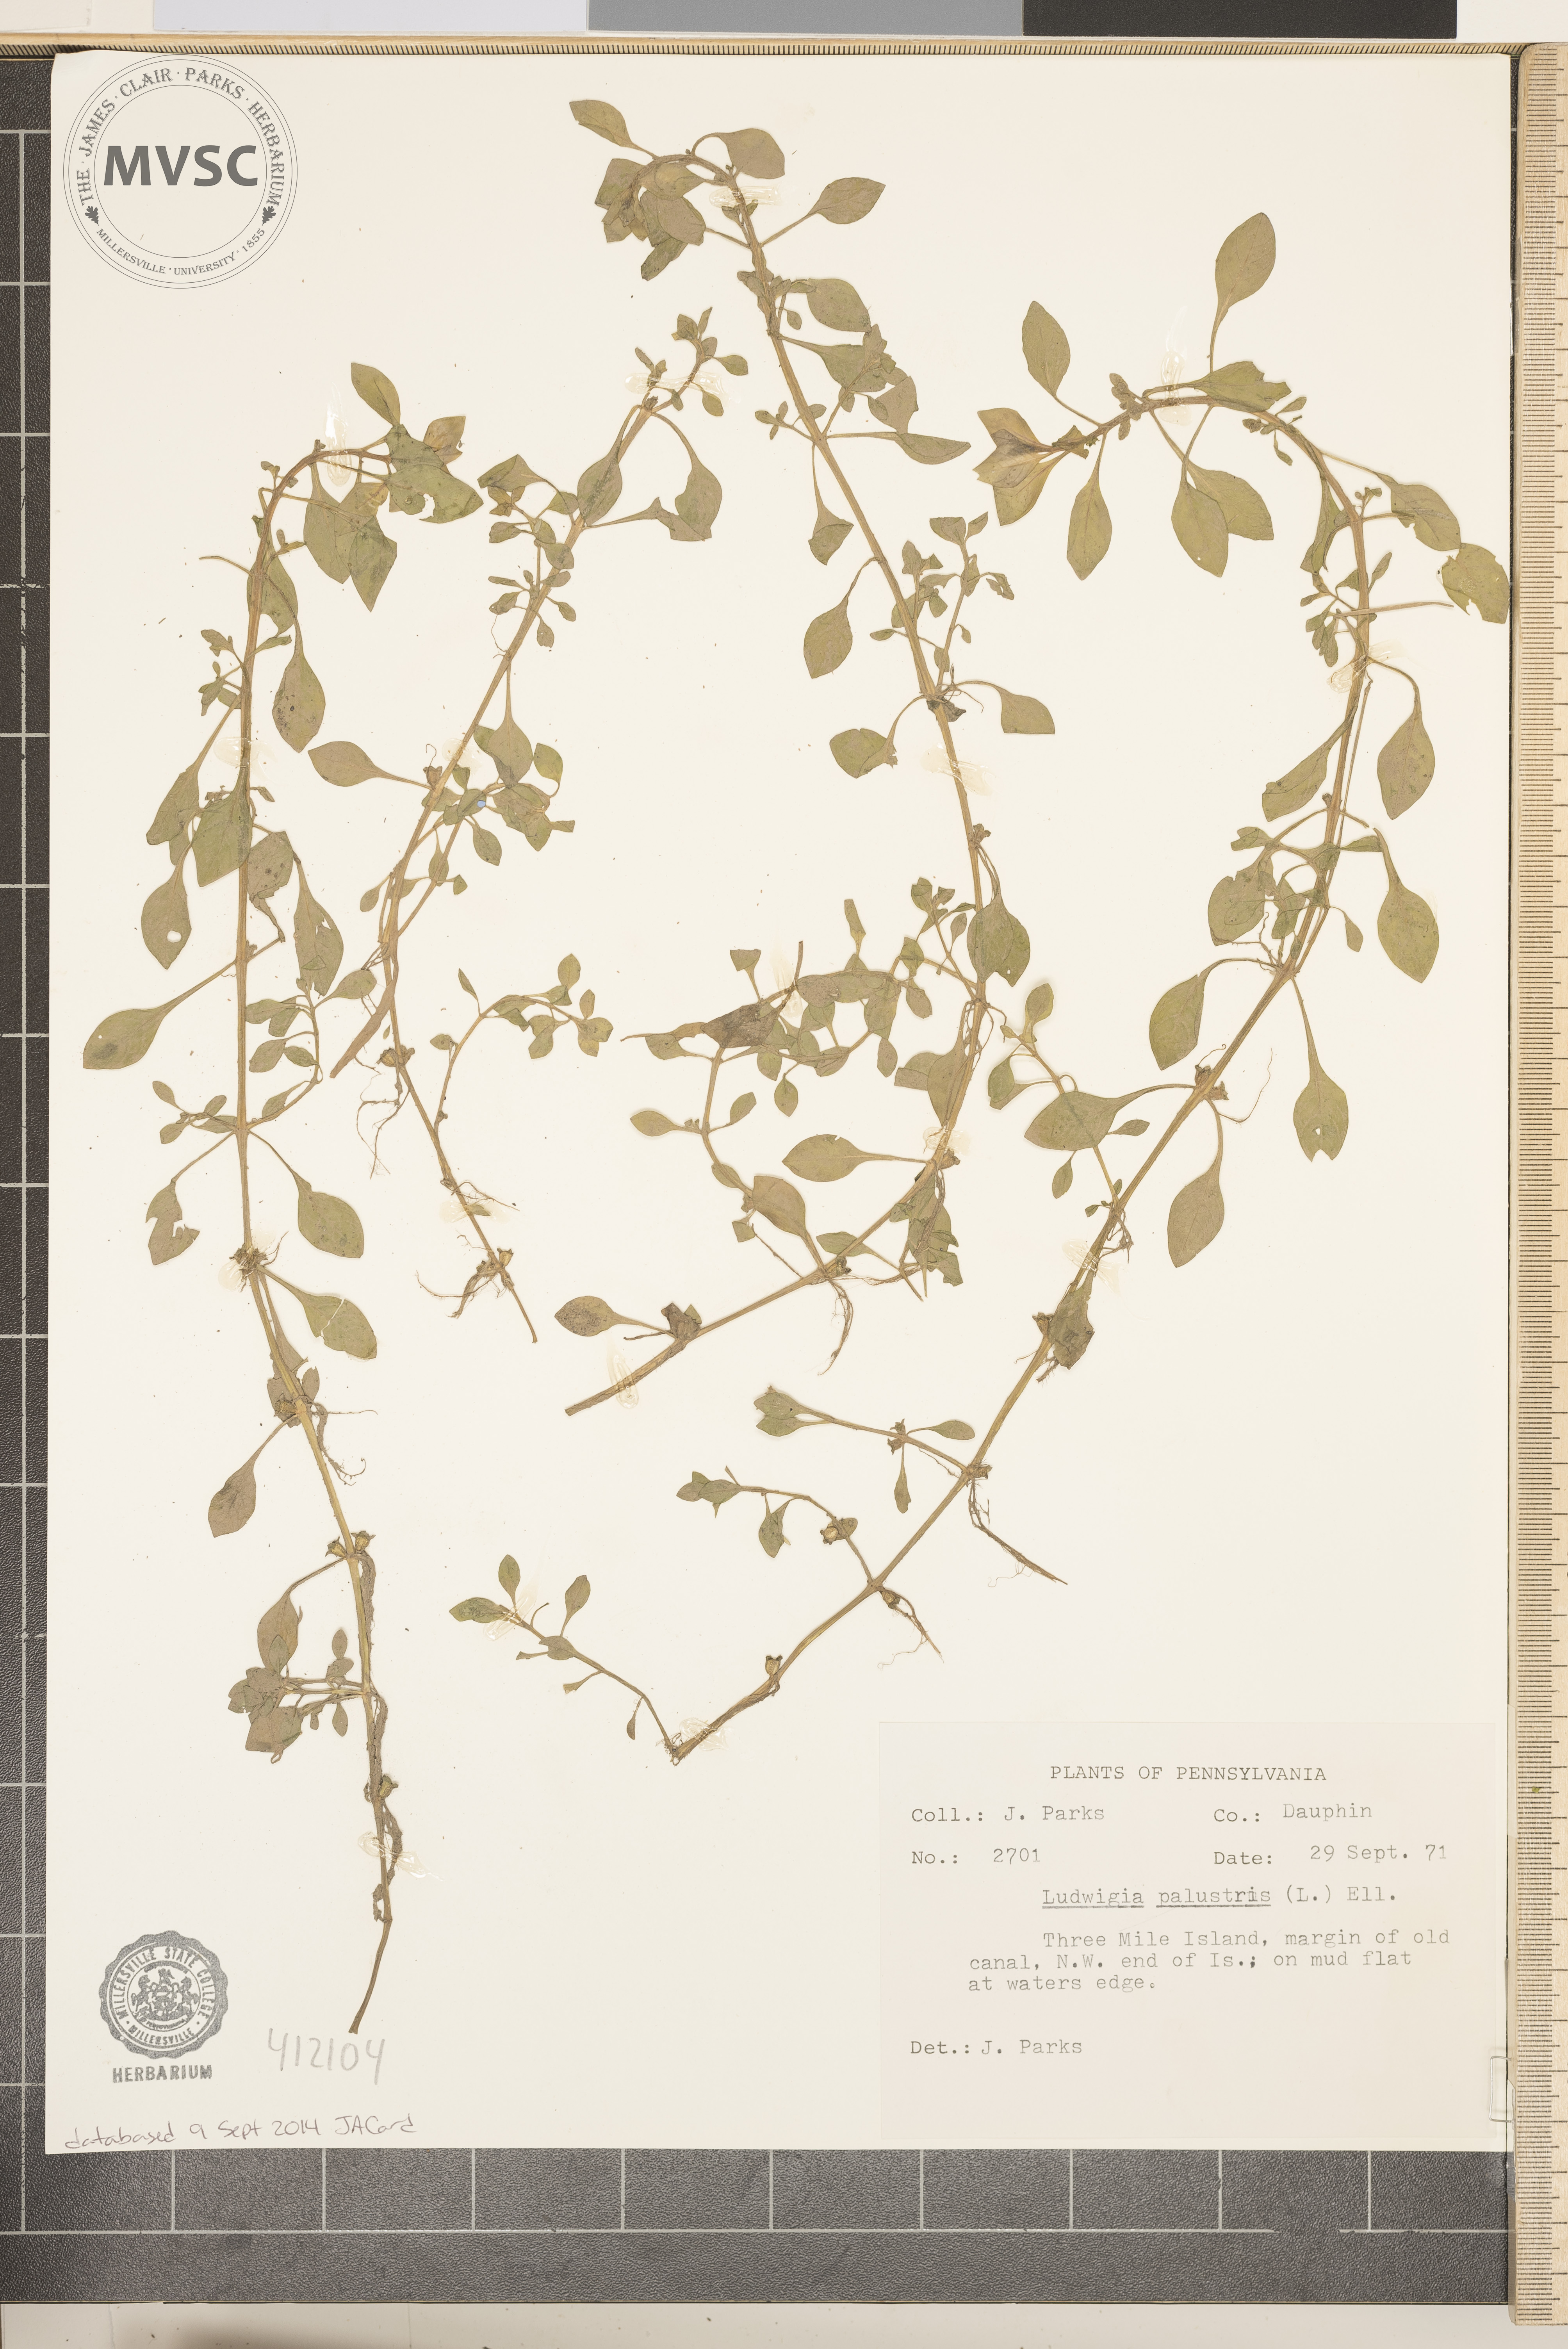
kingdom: Plantae
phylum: Tracheophyta
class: Magnoliopsida
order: Myrtales
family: Onagraceae
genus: Ludwigia
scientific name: Ludwigia palustris
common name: Hampshire-purslane
